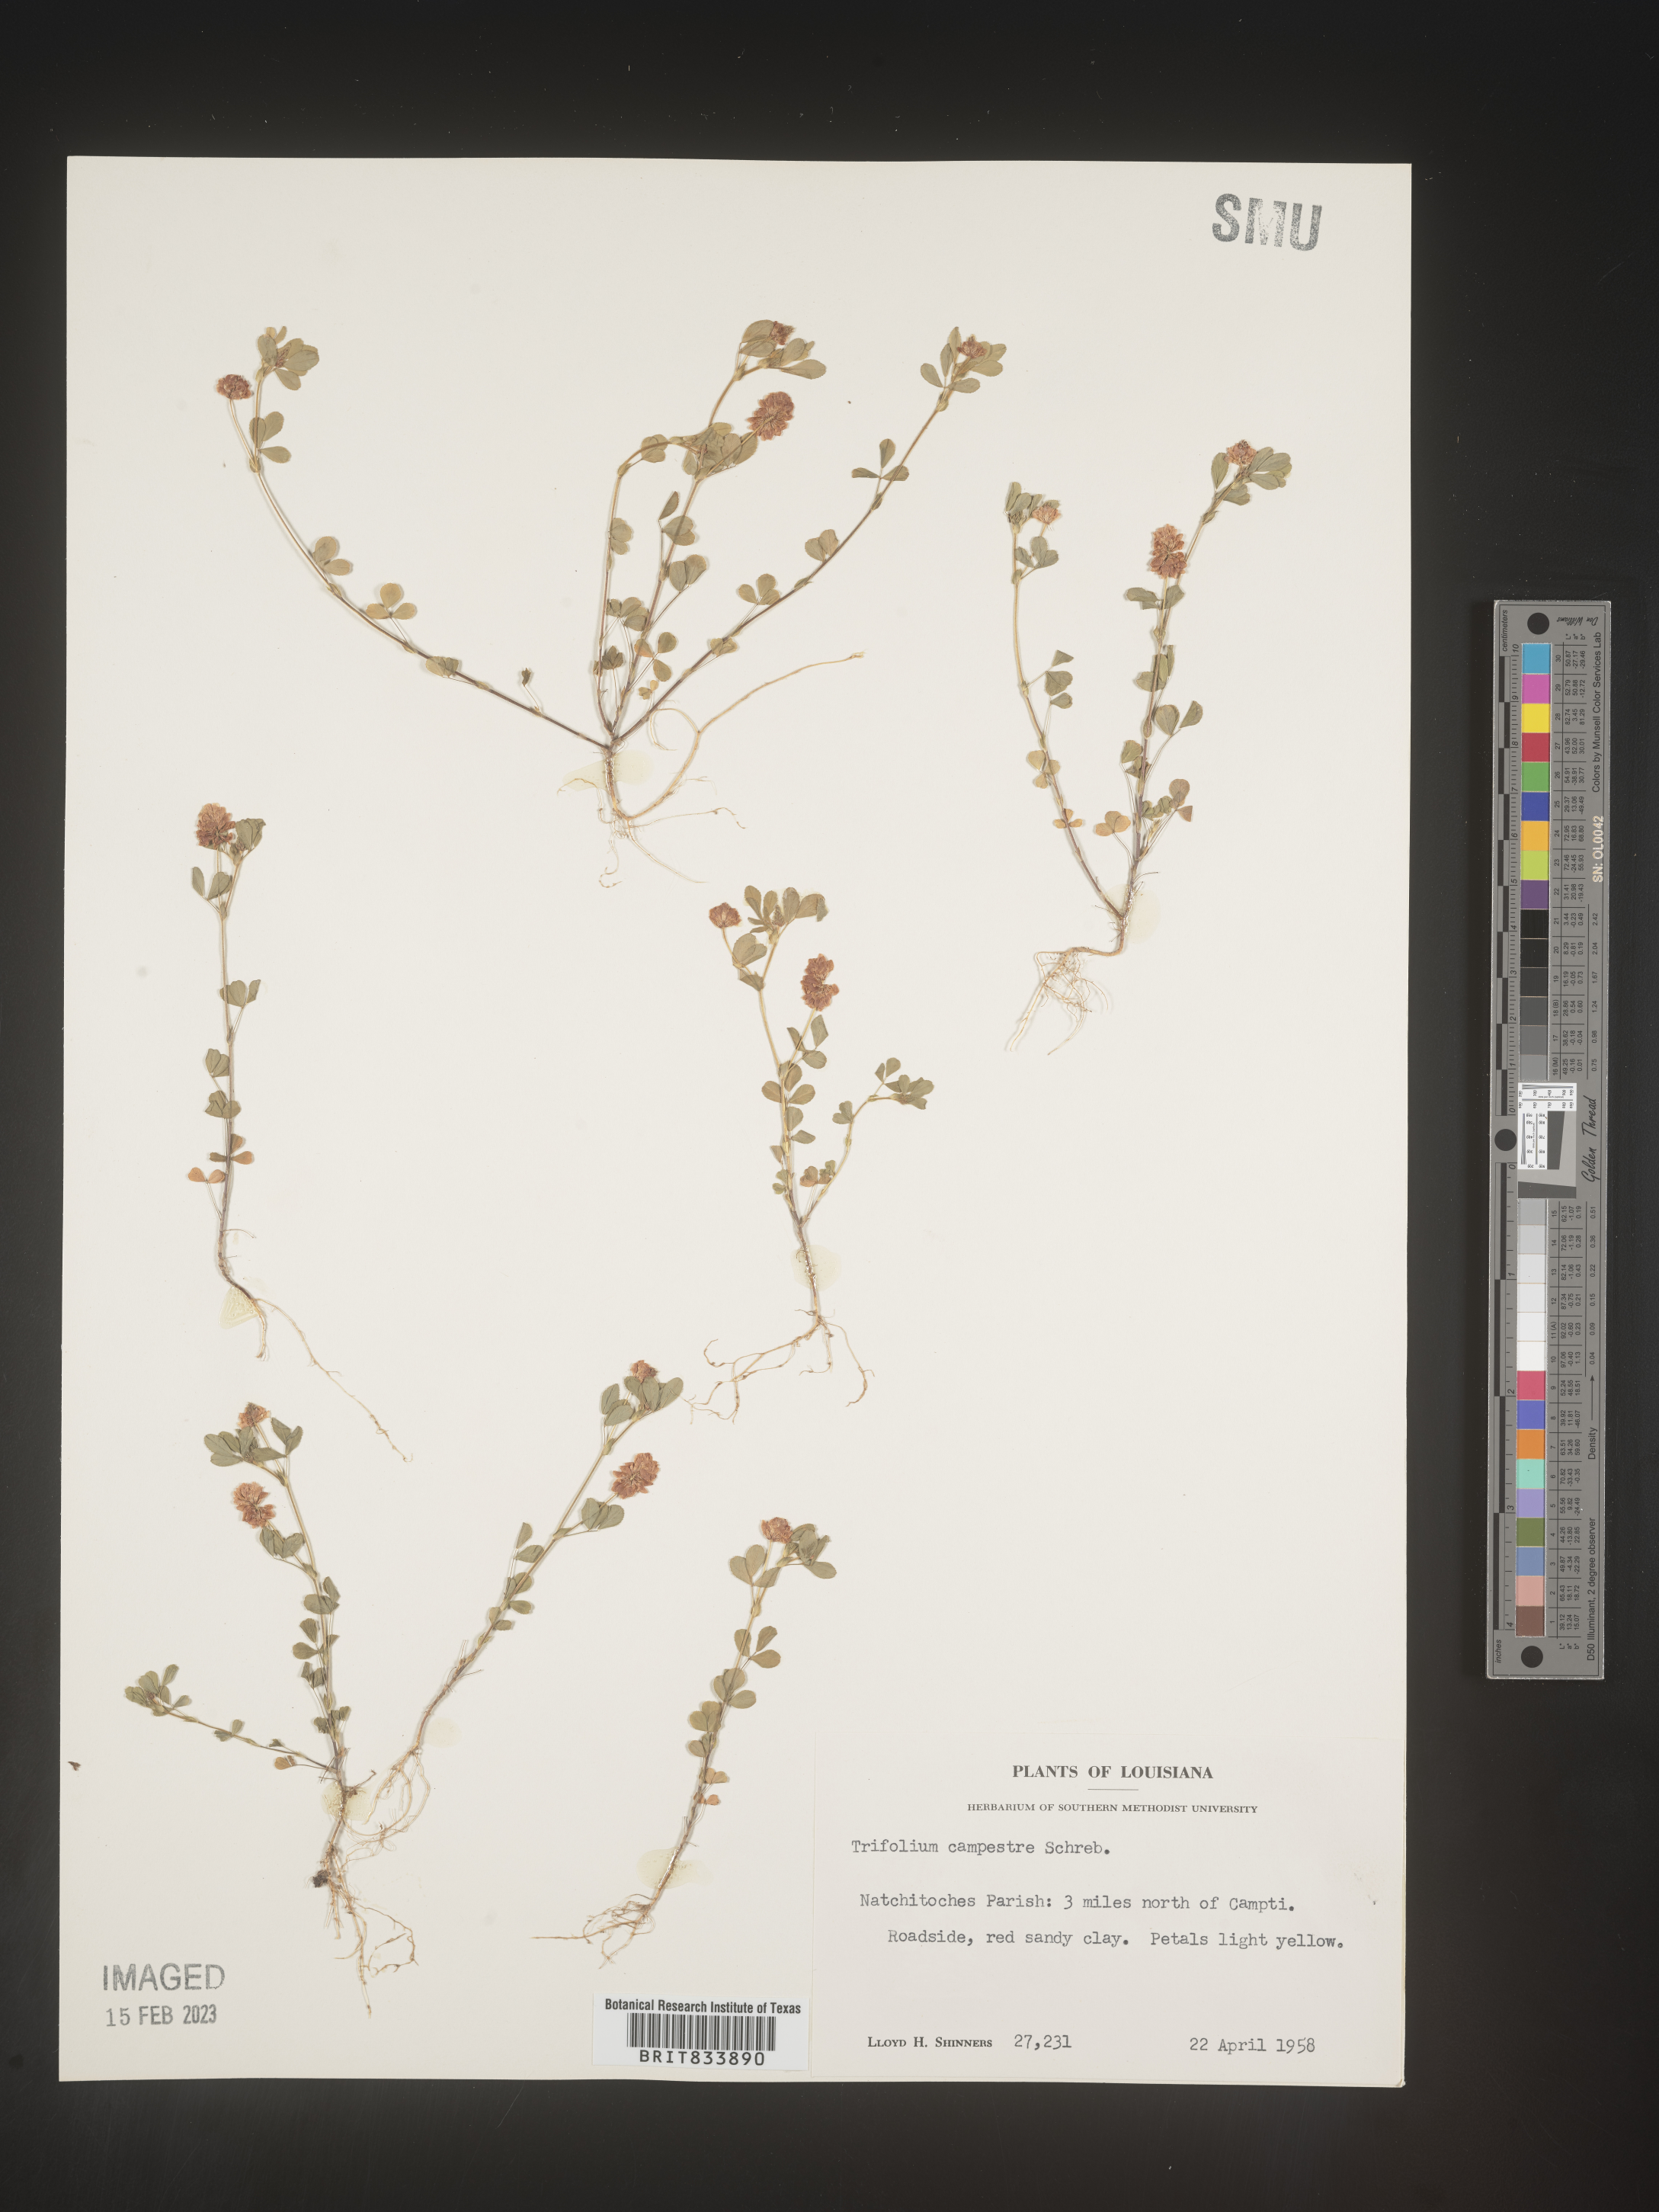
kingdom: Plantae
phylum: Tracheophyta
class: Magnoliopsida
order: Fabales
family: Fabaceae
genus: Trifolium
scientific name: Trifolium campestre
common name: Field clover
